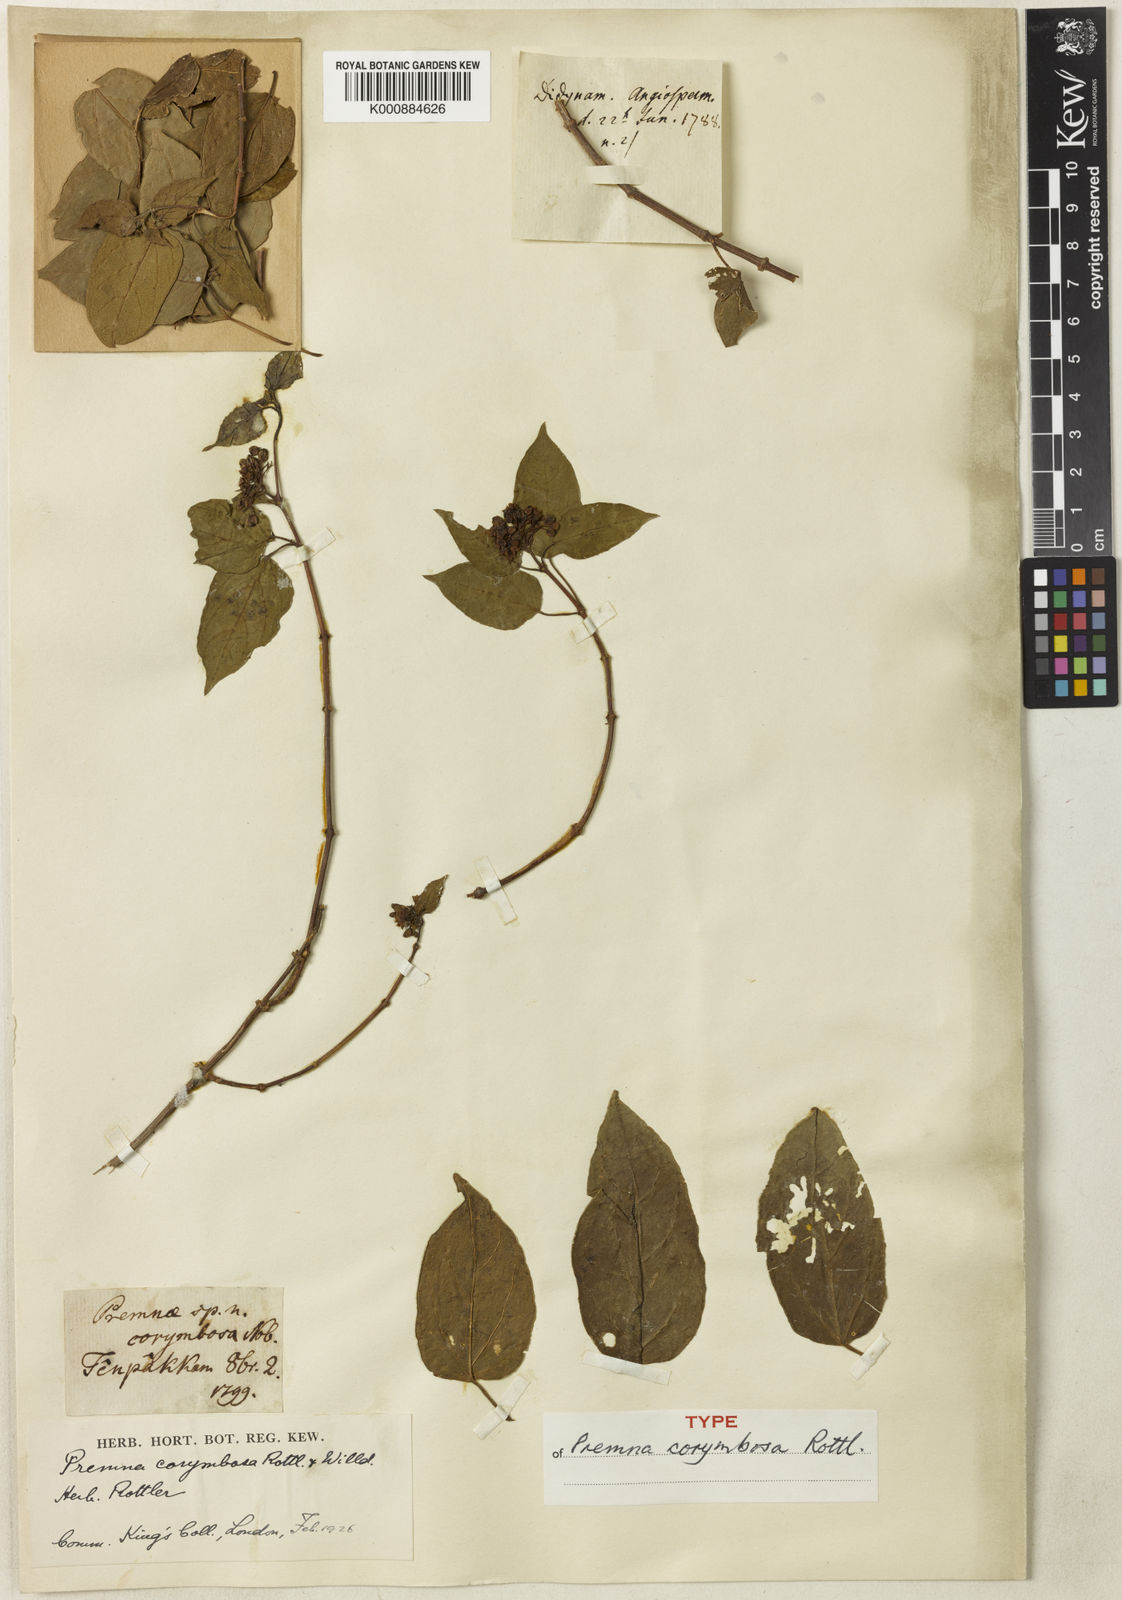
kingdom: Plantae
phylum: Tracheophyta
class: Magnoliopsida
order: Lamiales
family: Lamiaceae
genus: Premna
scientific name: Premna scandens
